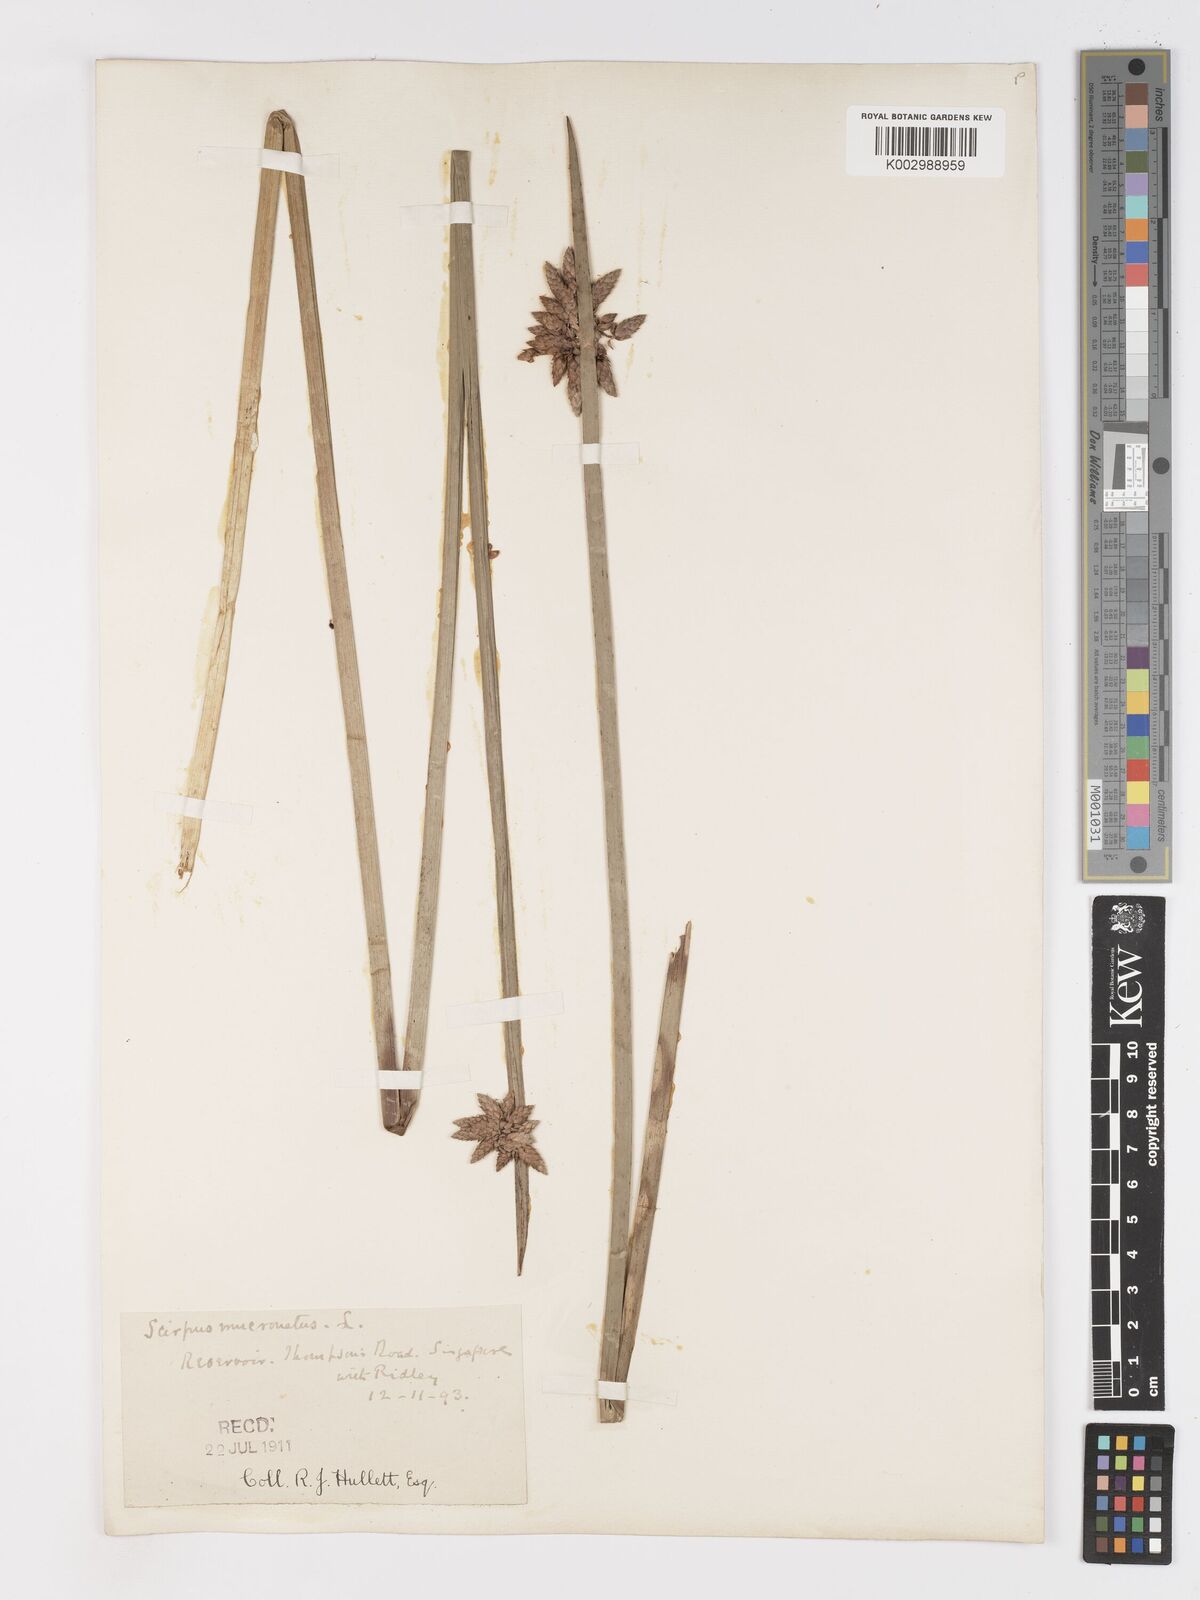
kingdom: Plantae
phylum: Tracheophyta
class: Liliopsida
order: Poales
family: Cyperaceae
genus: Schoenoplectiella
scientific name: Schoenoplectiella mucronata
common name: Bog bulrush
